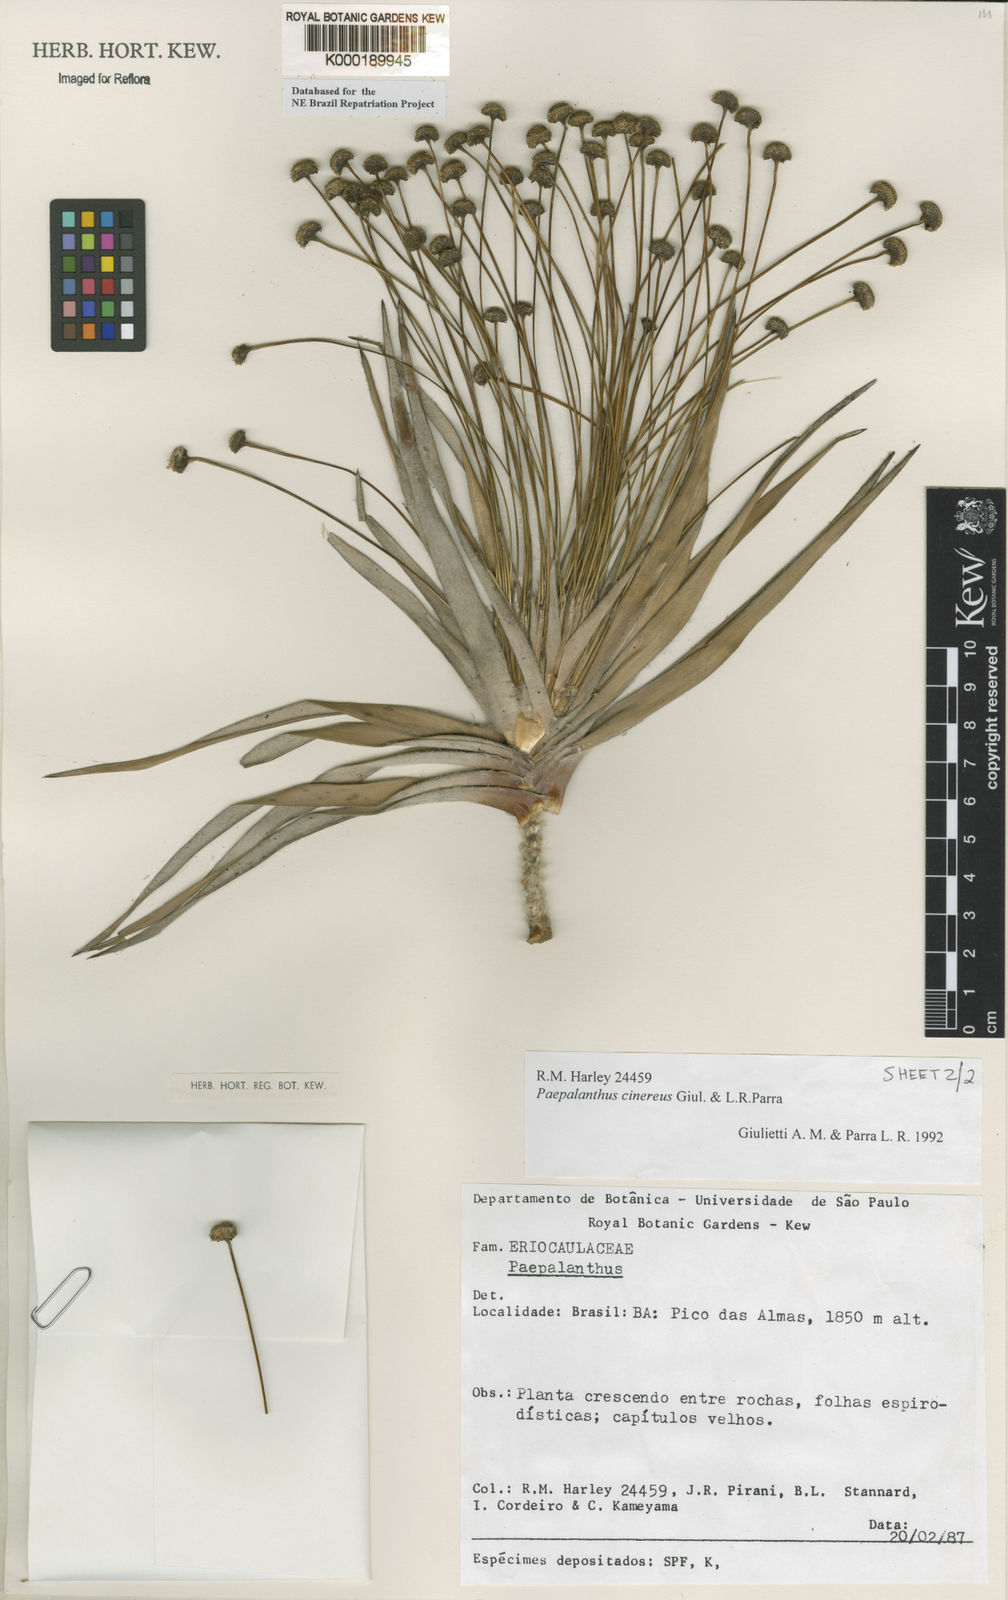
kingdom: Plantae
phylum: Tracheophyta
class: Liliopsida
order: Poales
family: Eriocaulaceae
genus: Paepalanthus
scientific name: Paepalanthus cinereus
